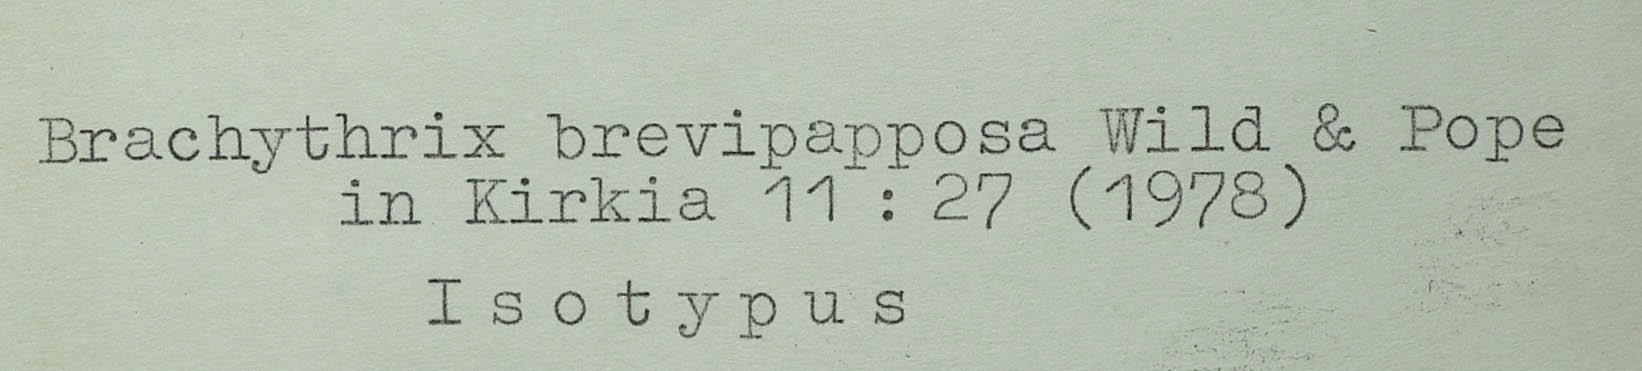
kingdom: Plantae
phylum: Tracheophyta
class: Magnoliopsida
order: Asterales
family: Asteraceae
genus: Brachythrix
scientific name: Brachythrix glomerata
